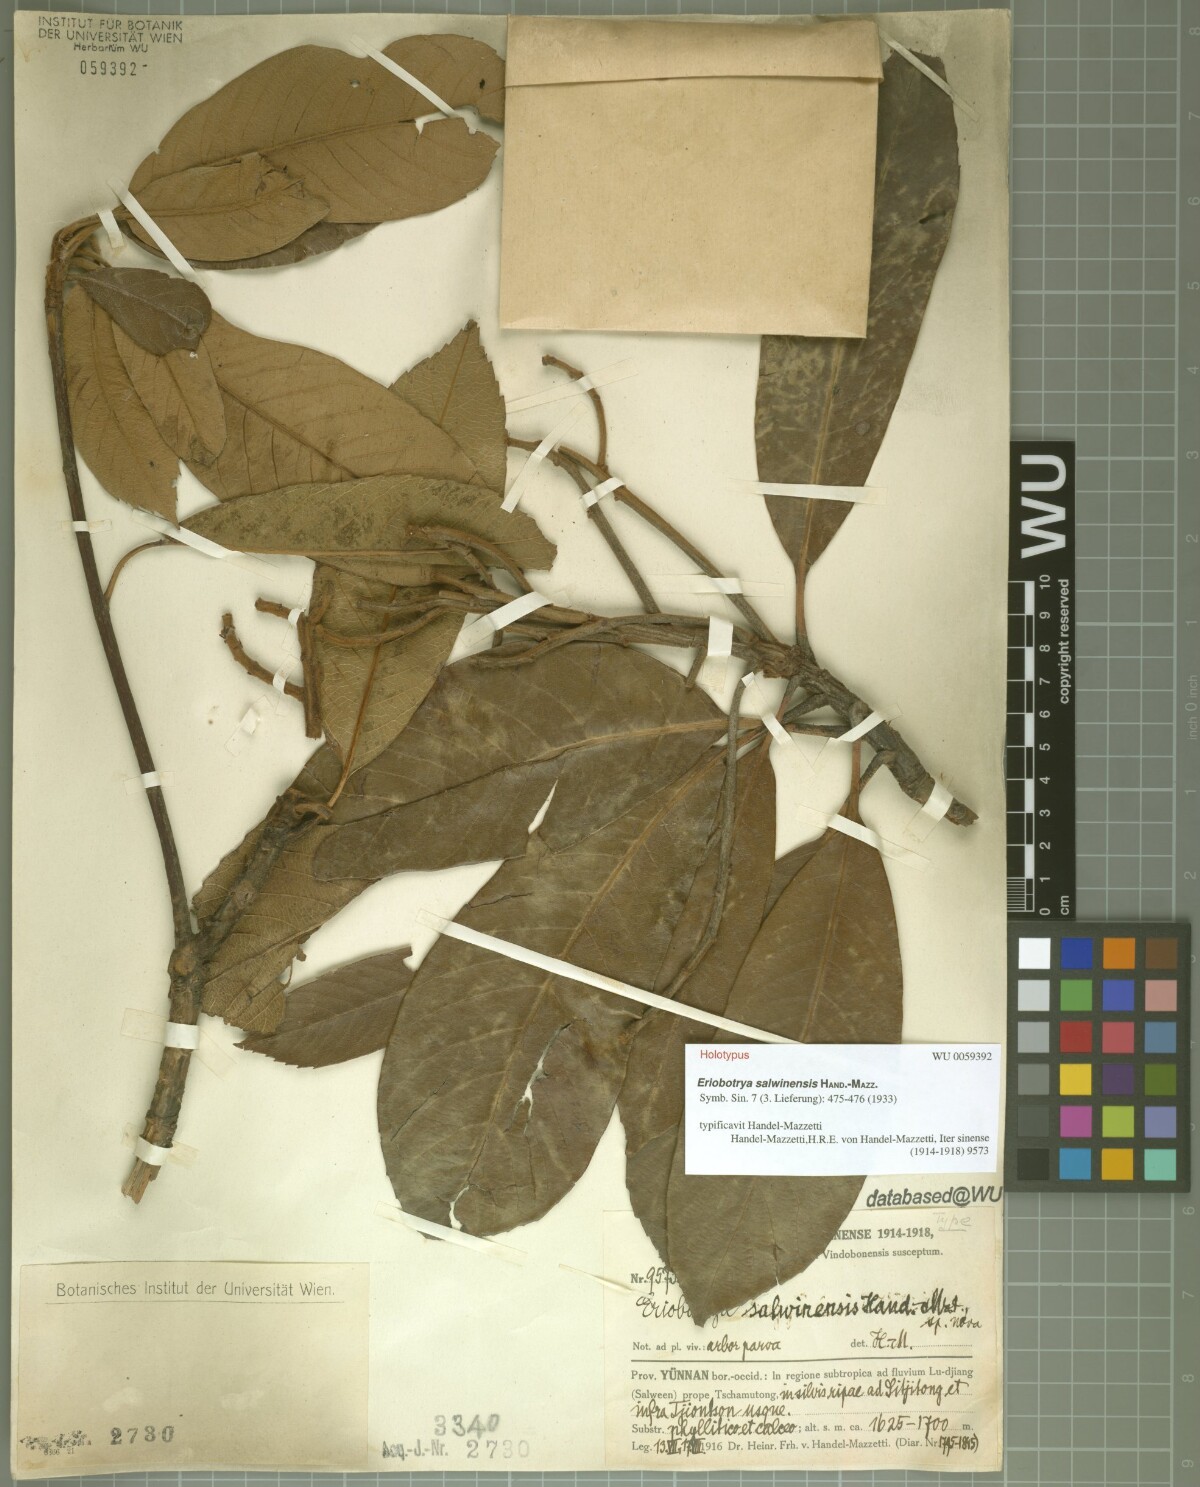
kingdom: Plantae
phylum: Tracheophyta
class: Magnoliopsida
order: Rosales
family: Rosaceae
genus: Rhaphiolepis
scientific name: Rhaphiolepis salwinensis
